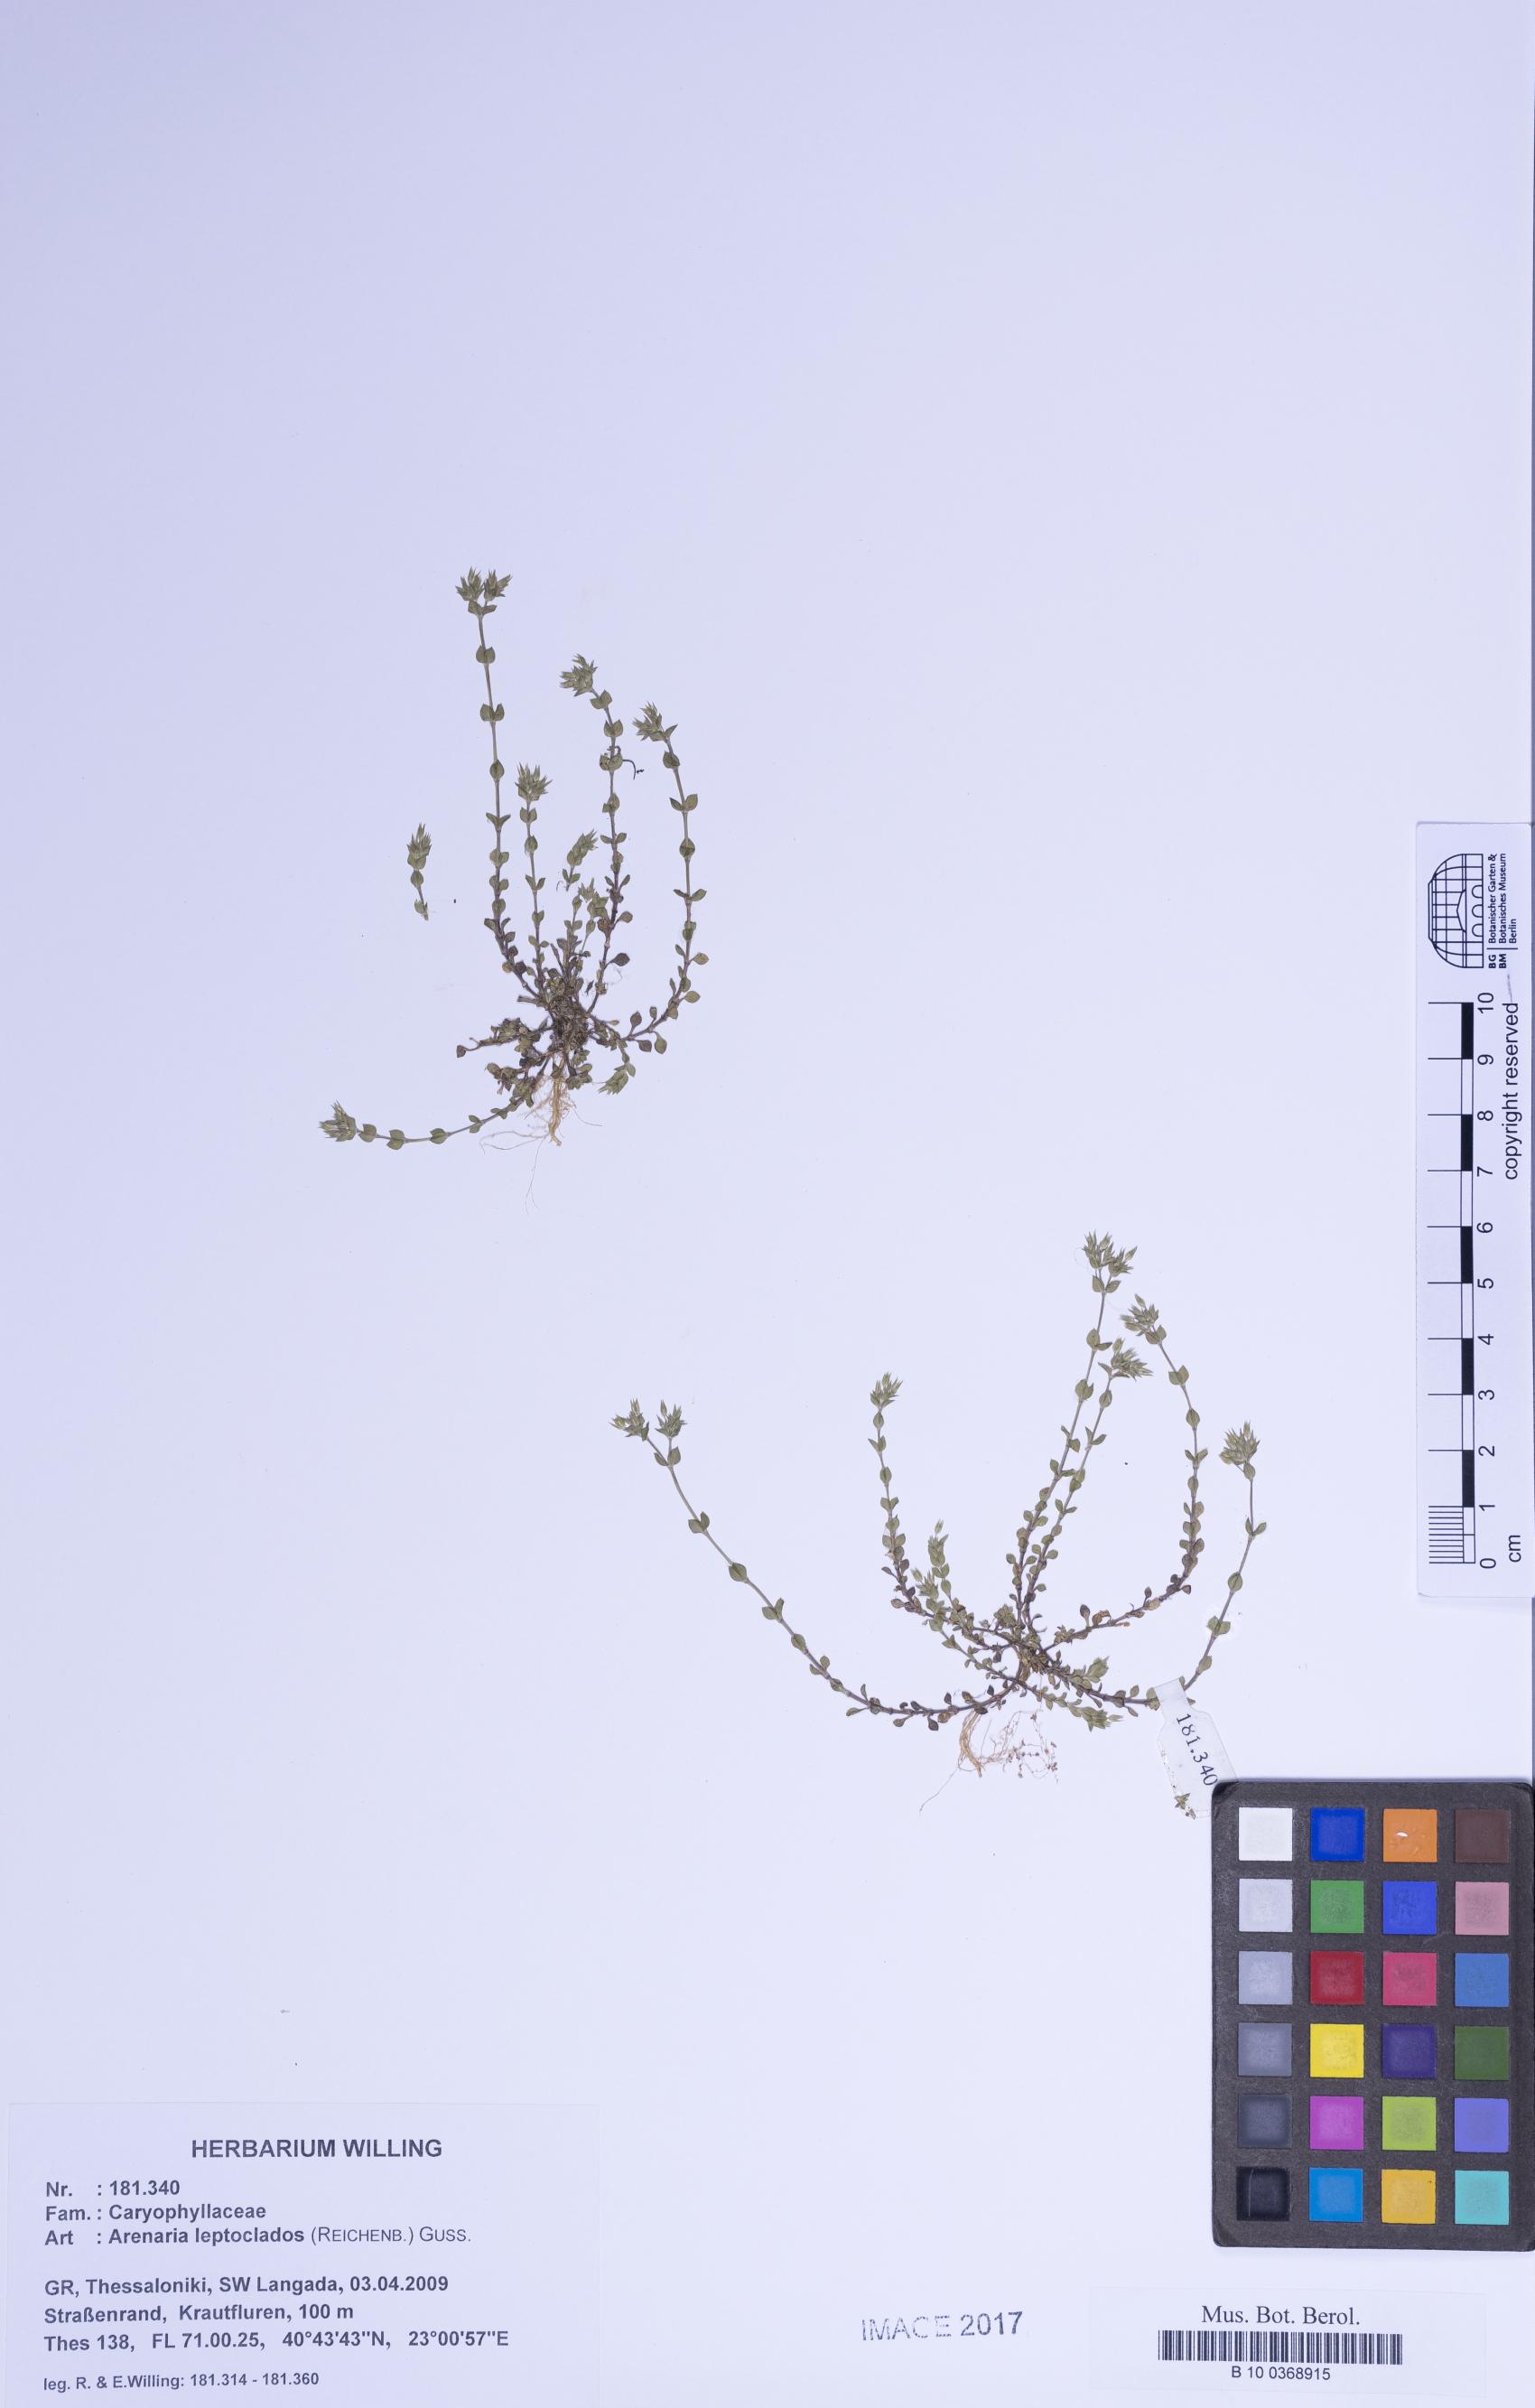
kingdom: Plantae
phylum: Tracheophyta
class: Magnoliopsida
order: Caryophyllales
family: Caryophyllaceae
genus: Arenaria
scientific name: Arenaria leptoclados
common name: Thyme-leaved sandwort
